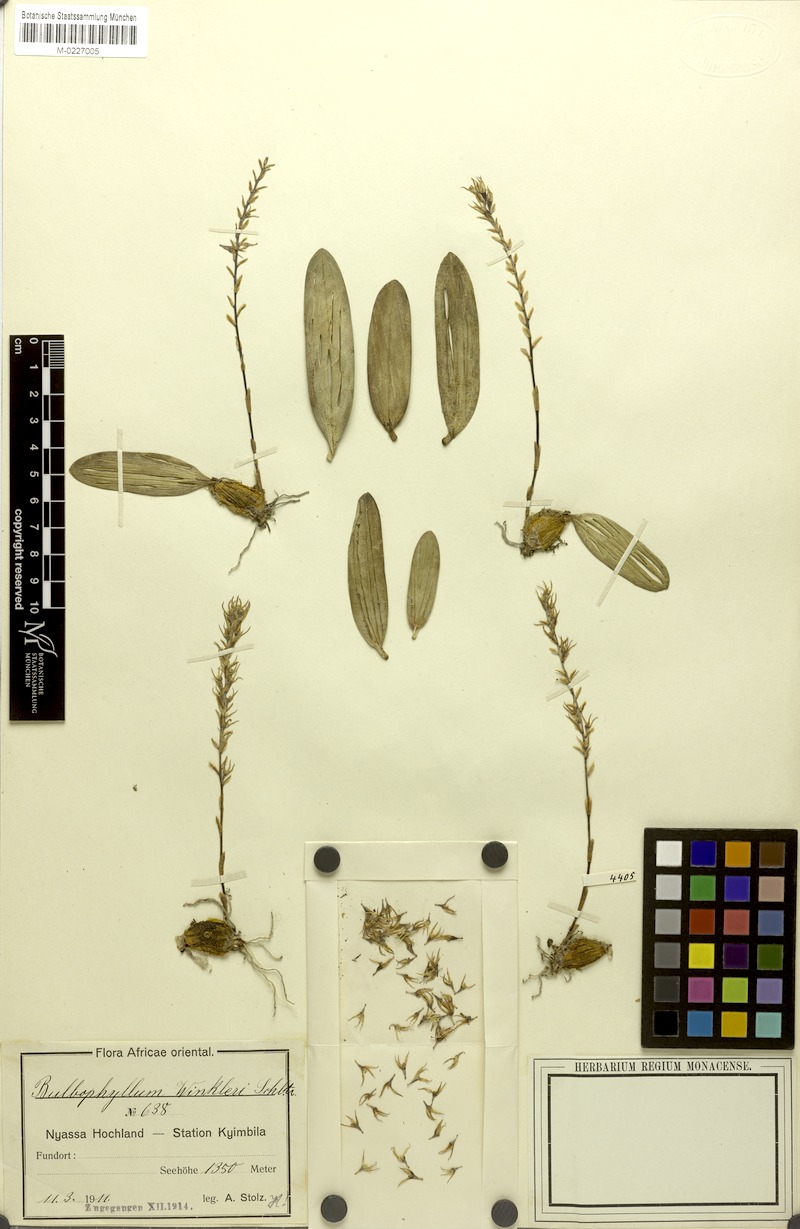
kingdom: Plantae
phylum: Tracheophyta
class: Liliopsida
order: Asparagales
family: Orchidaceae
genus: Bulbophyllum
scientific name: Bulbophyllum josephi
